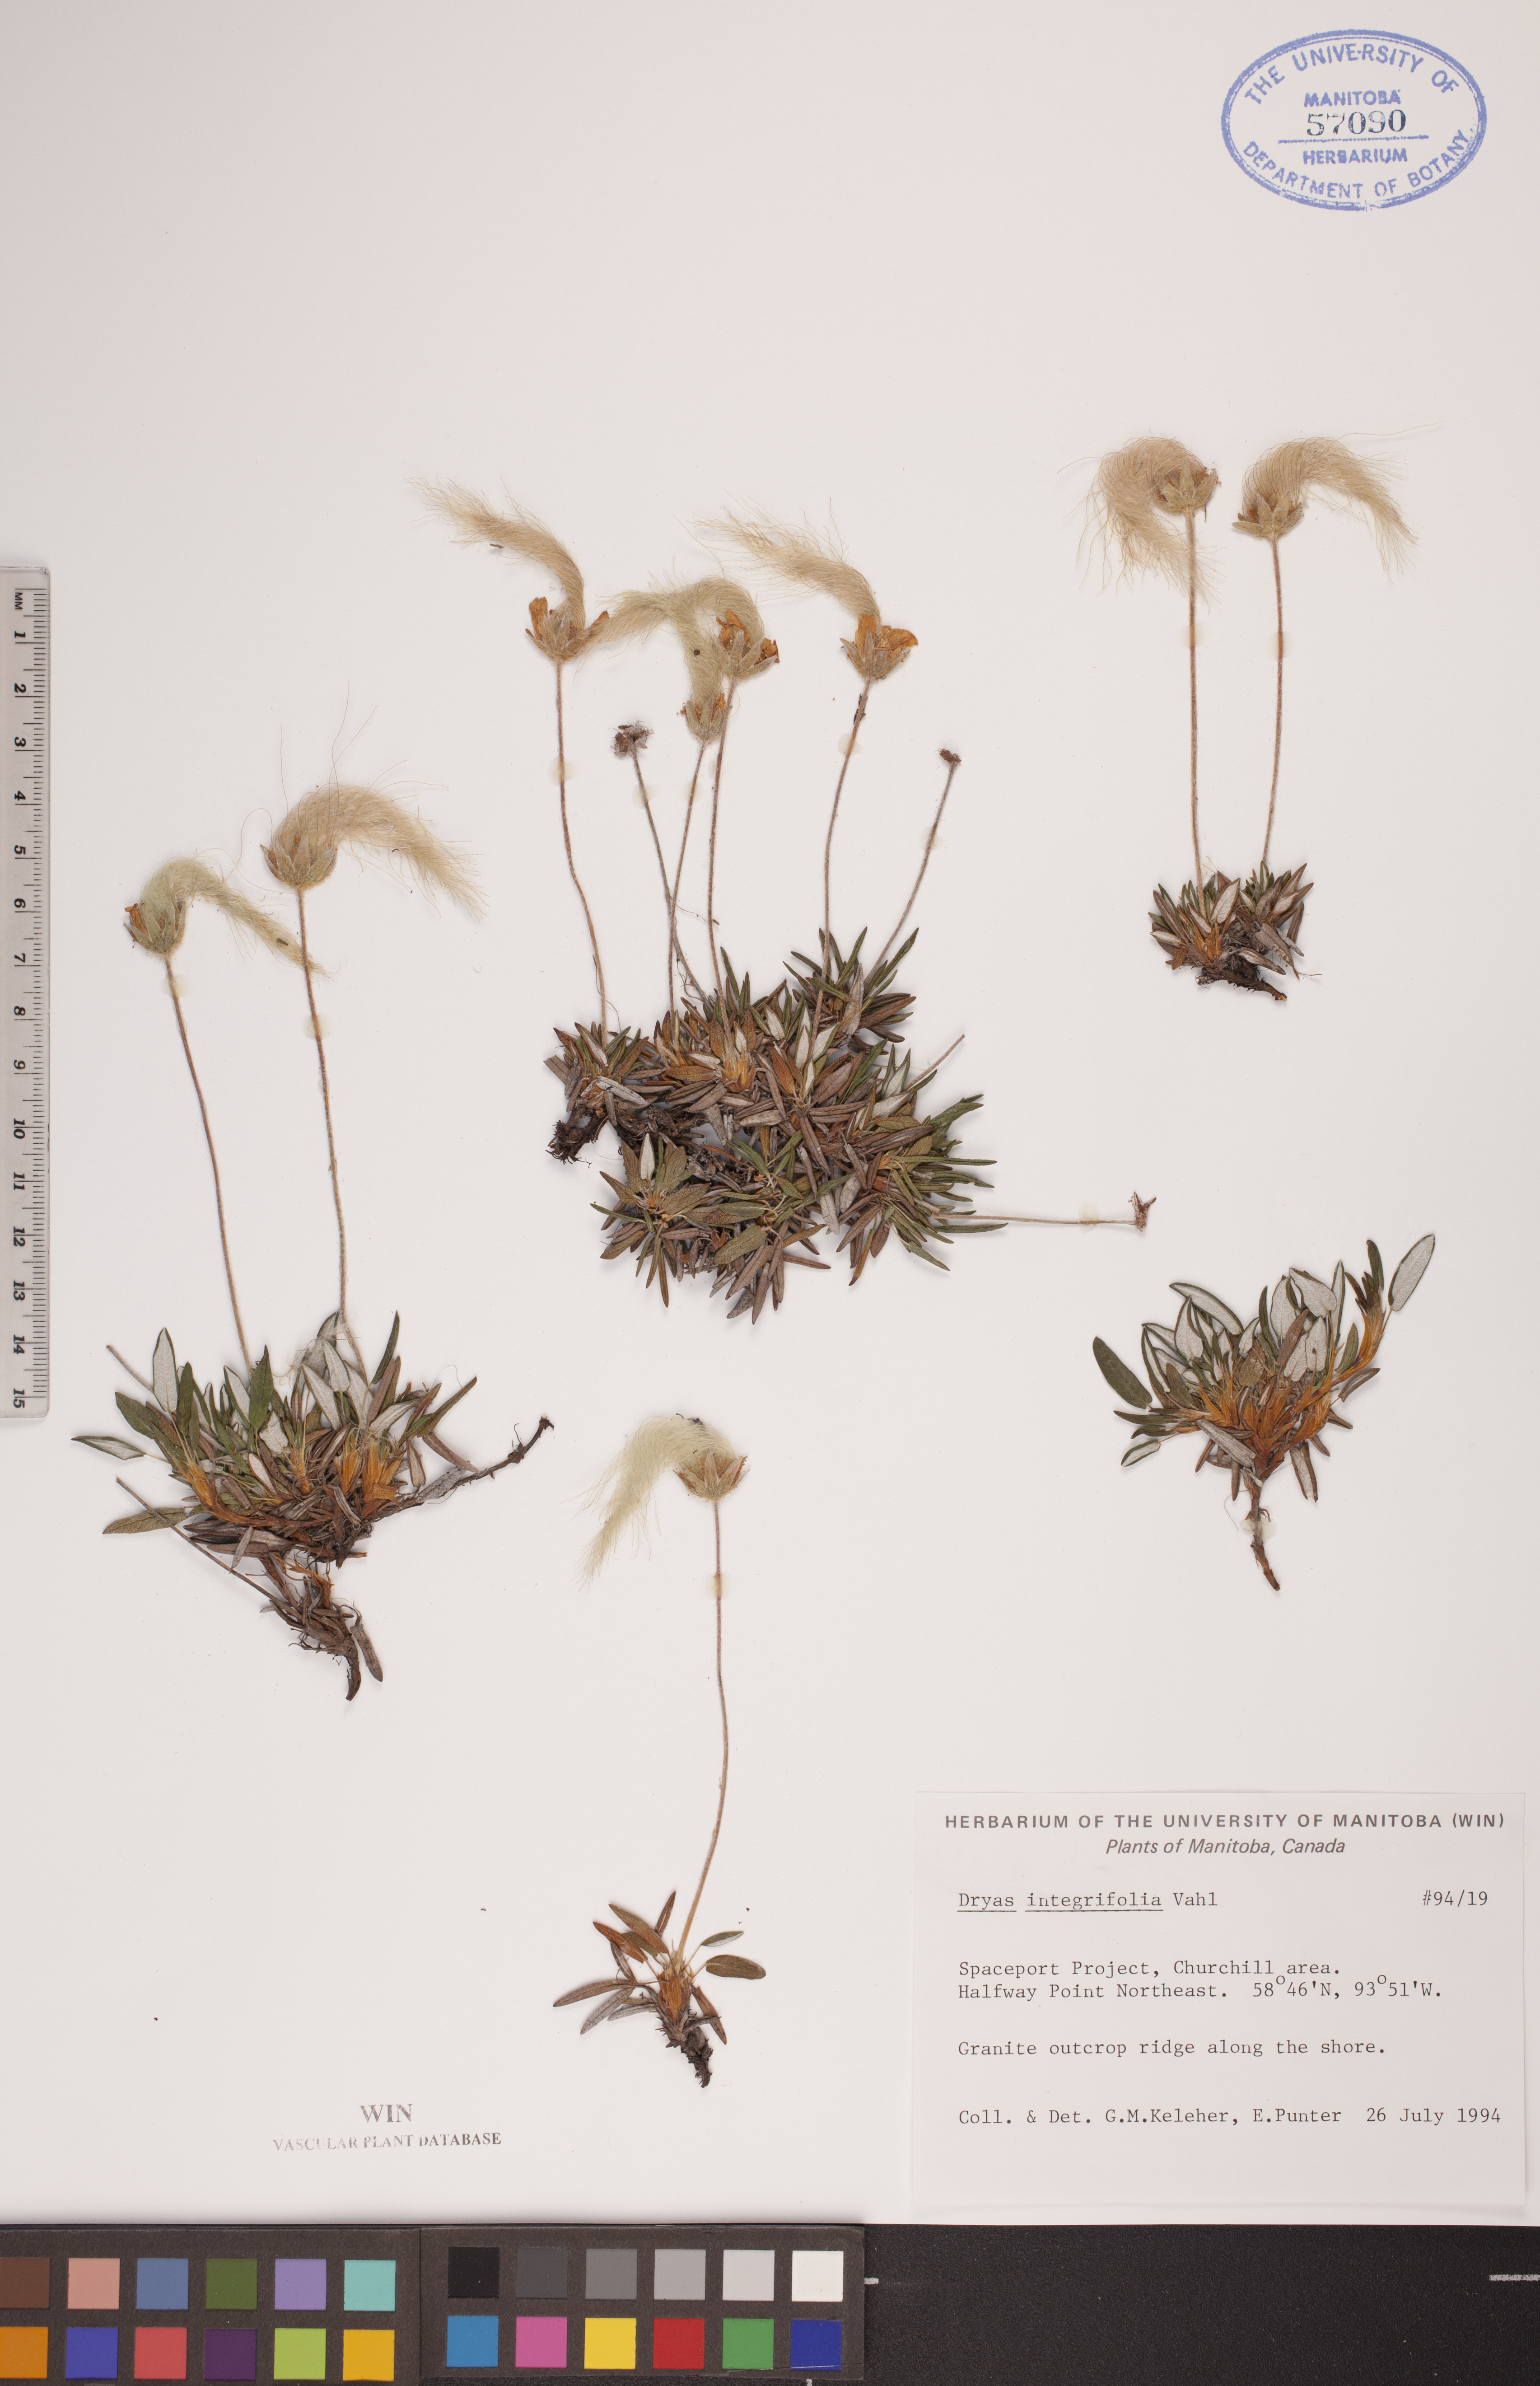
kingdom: Plantae
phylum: Tracheophyta
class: Magnoliopsida
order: Rosales
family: Rosaceae
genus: Dryas
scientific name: Dryas integrifolia
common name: Entire-leaved mountain avens
